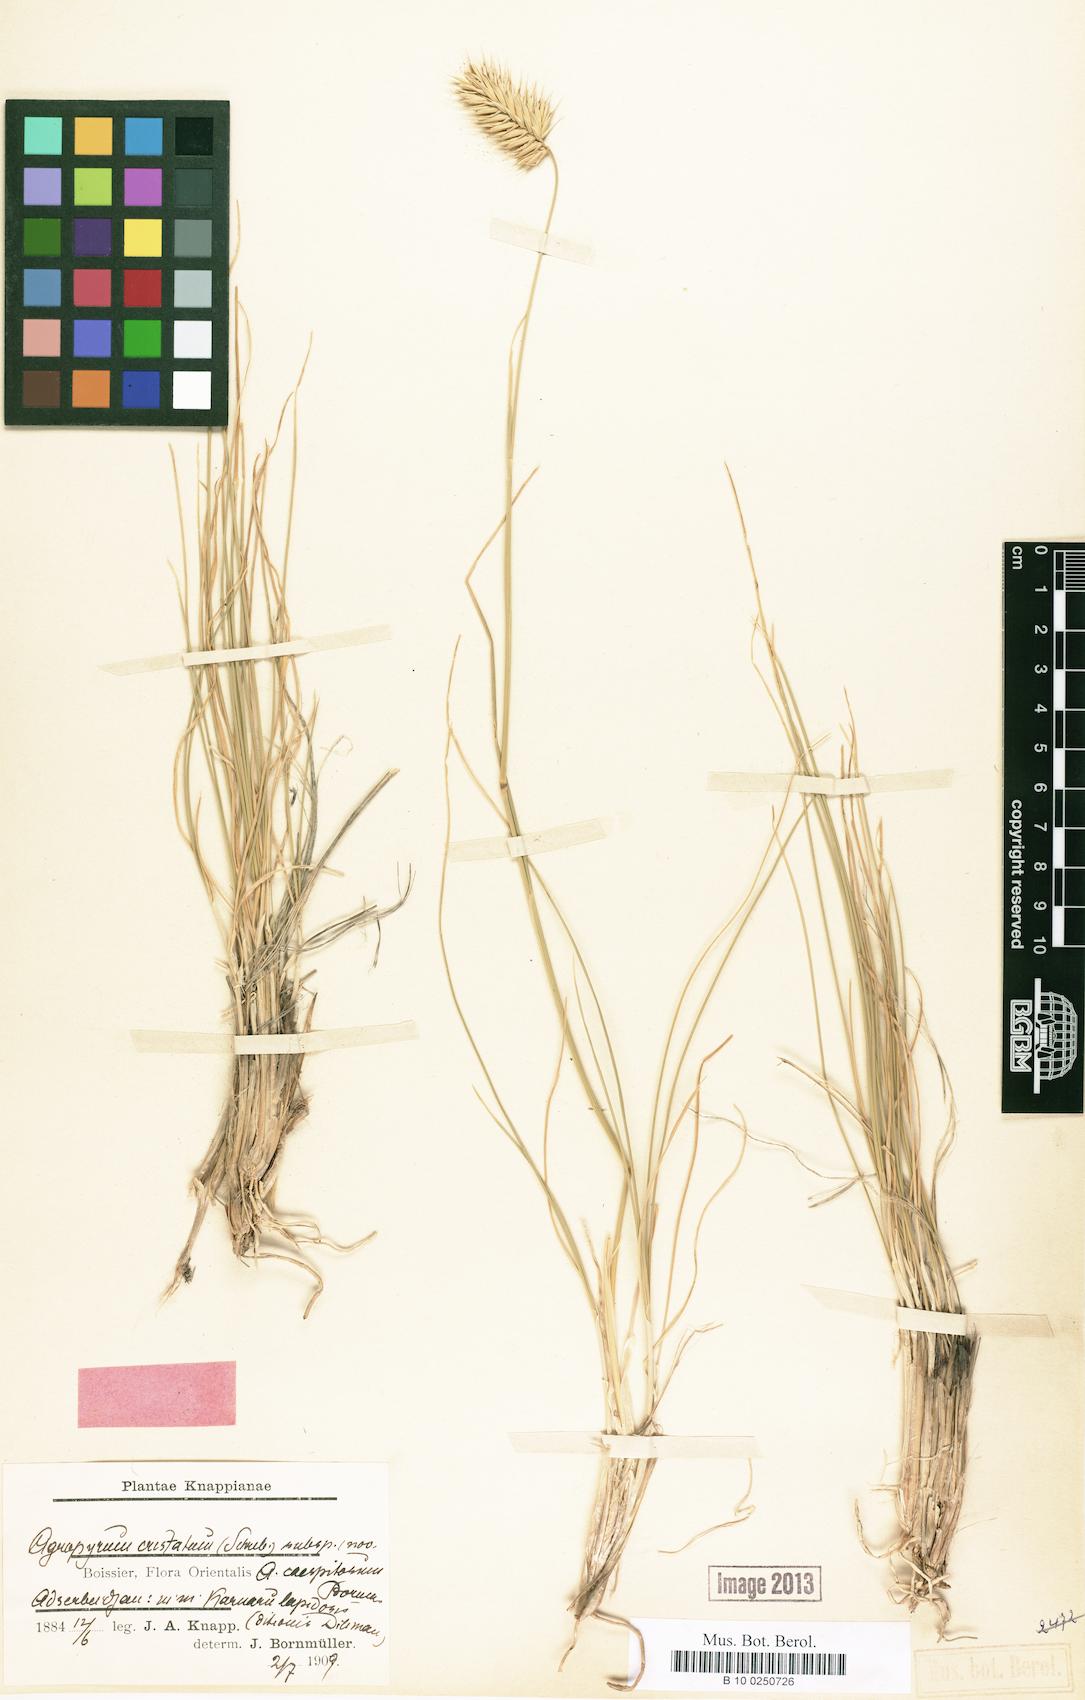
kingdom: Plantae
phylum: Tracheophyta
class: Liliopsida
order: Poales
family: Poaceae
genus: Agropyron
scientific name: Agropyron cristatum
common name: Crested wheatgrass
